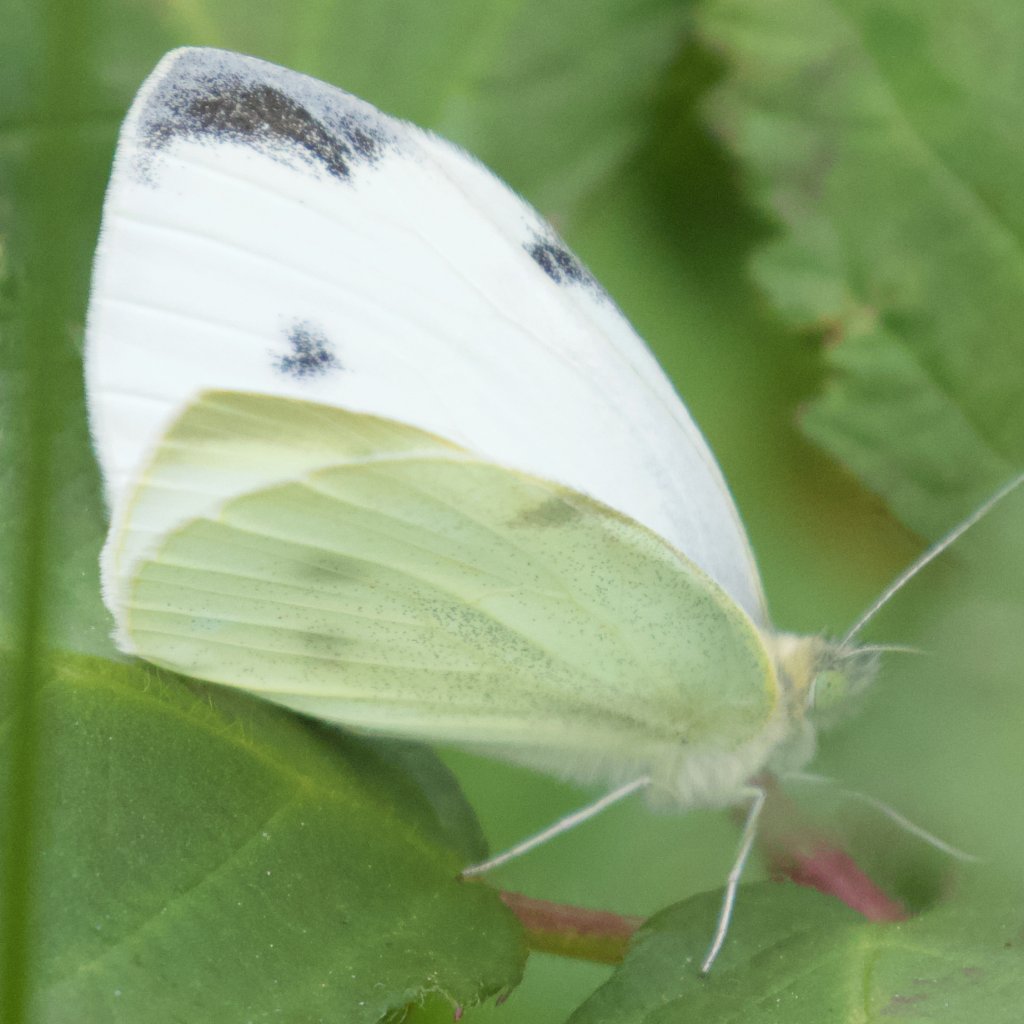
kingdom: Animalia
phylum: Arthropoda
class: Insecta
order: Lepidoptera
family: Pieridae
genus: Pieris
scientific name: Pieris rapae
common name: Cabbage White
